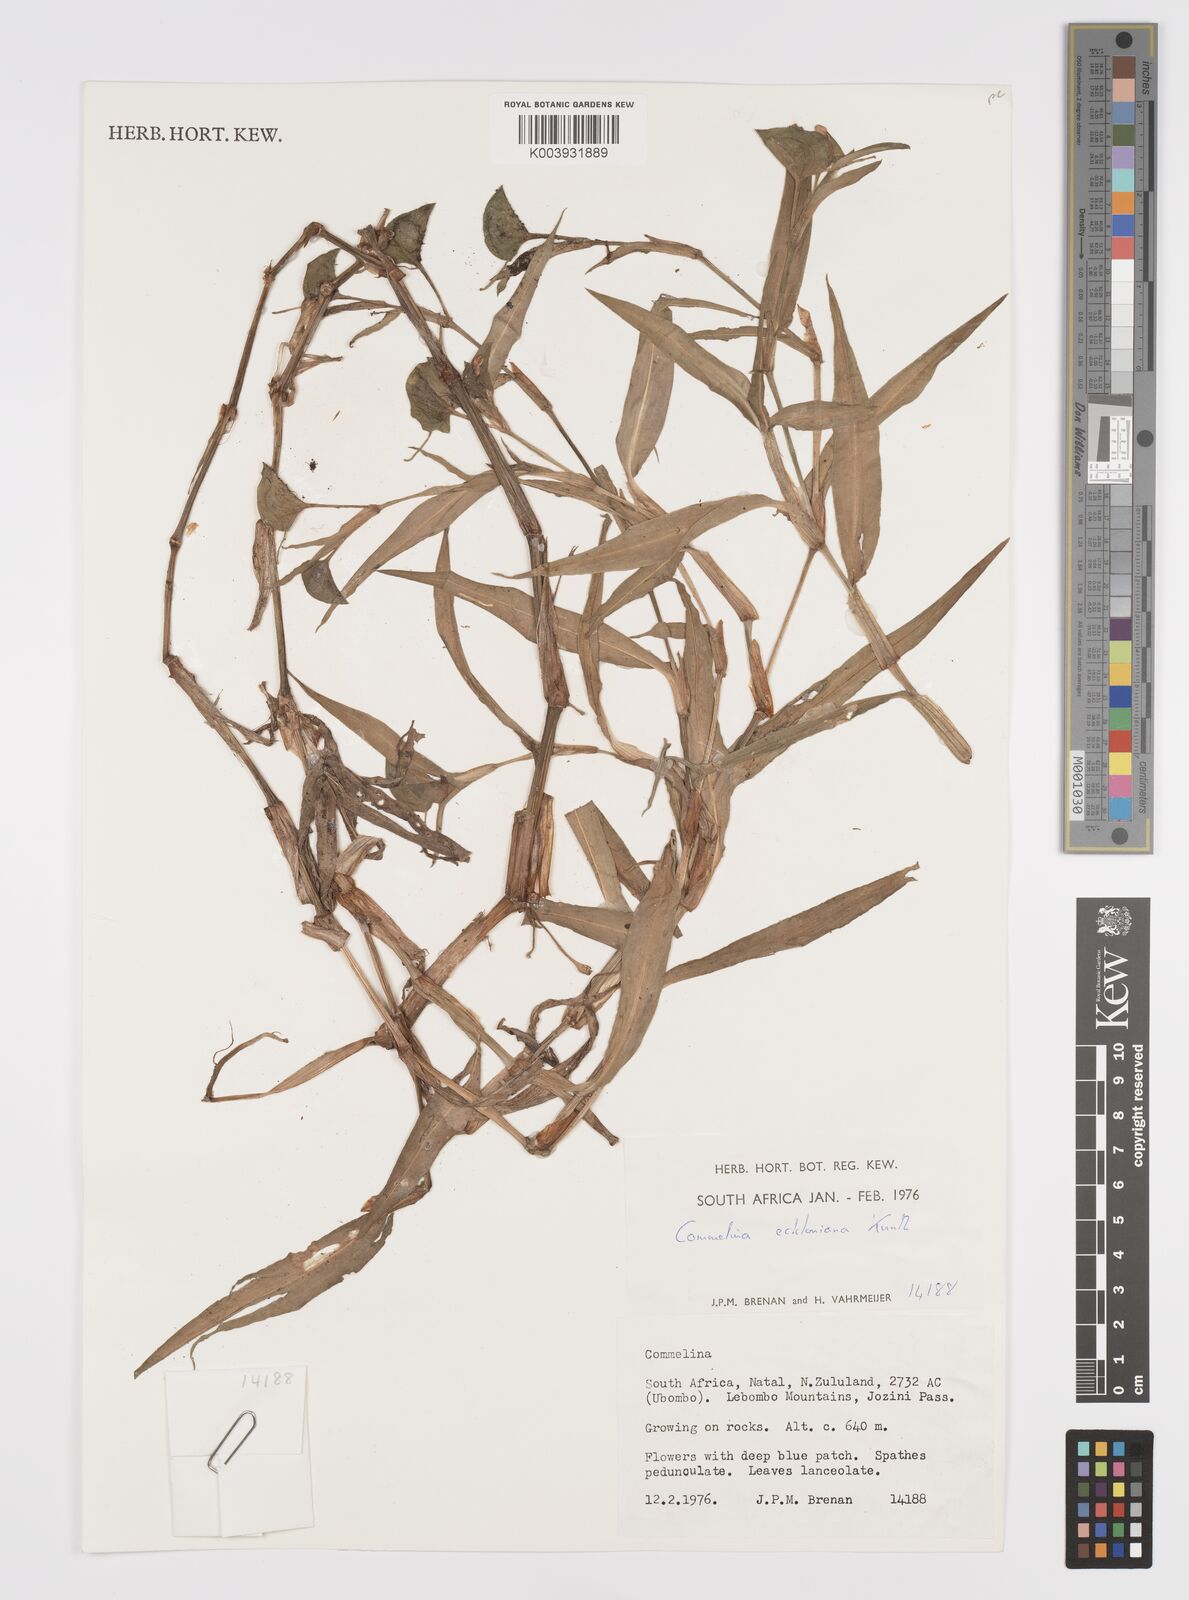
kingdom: Plantae
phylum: Tracheophyta
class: Liliopsida
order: Commelinales
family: Commelinaceae
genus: Commelina
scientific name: Commelina eckloniana
